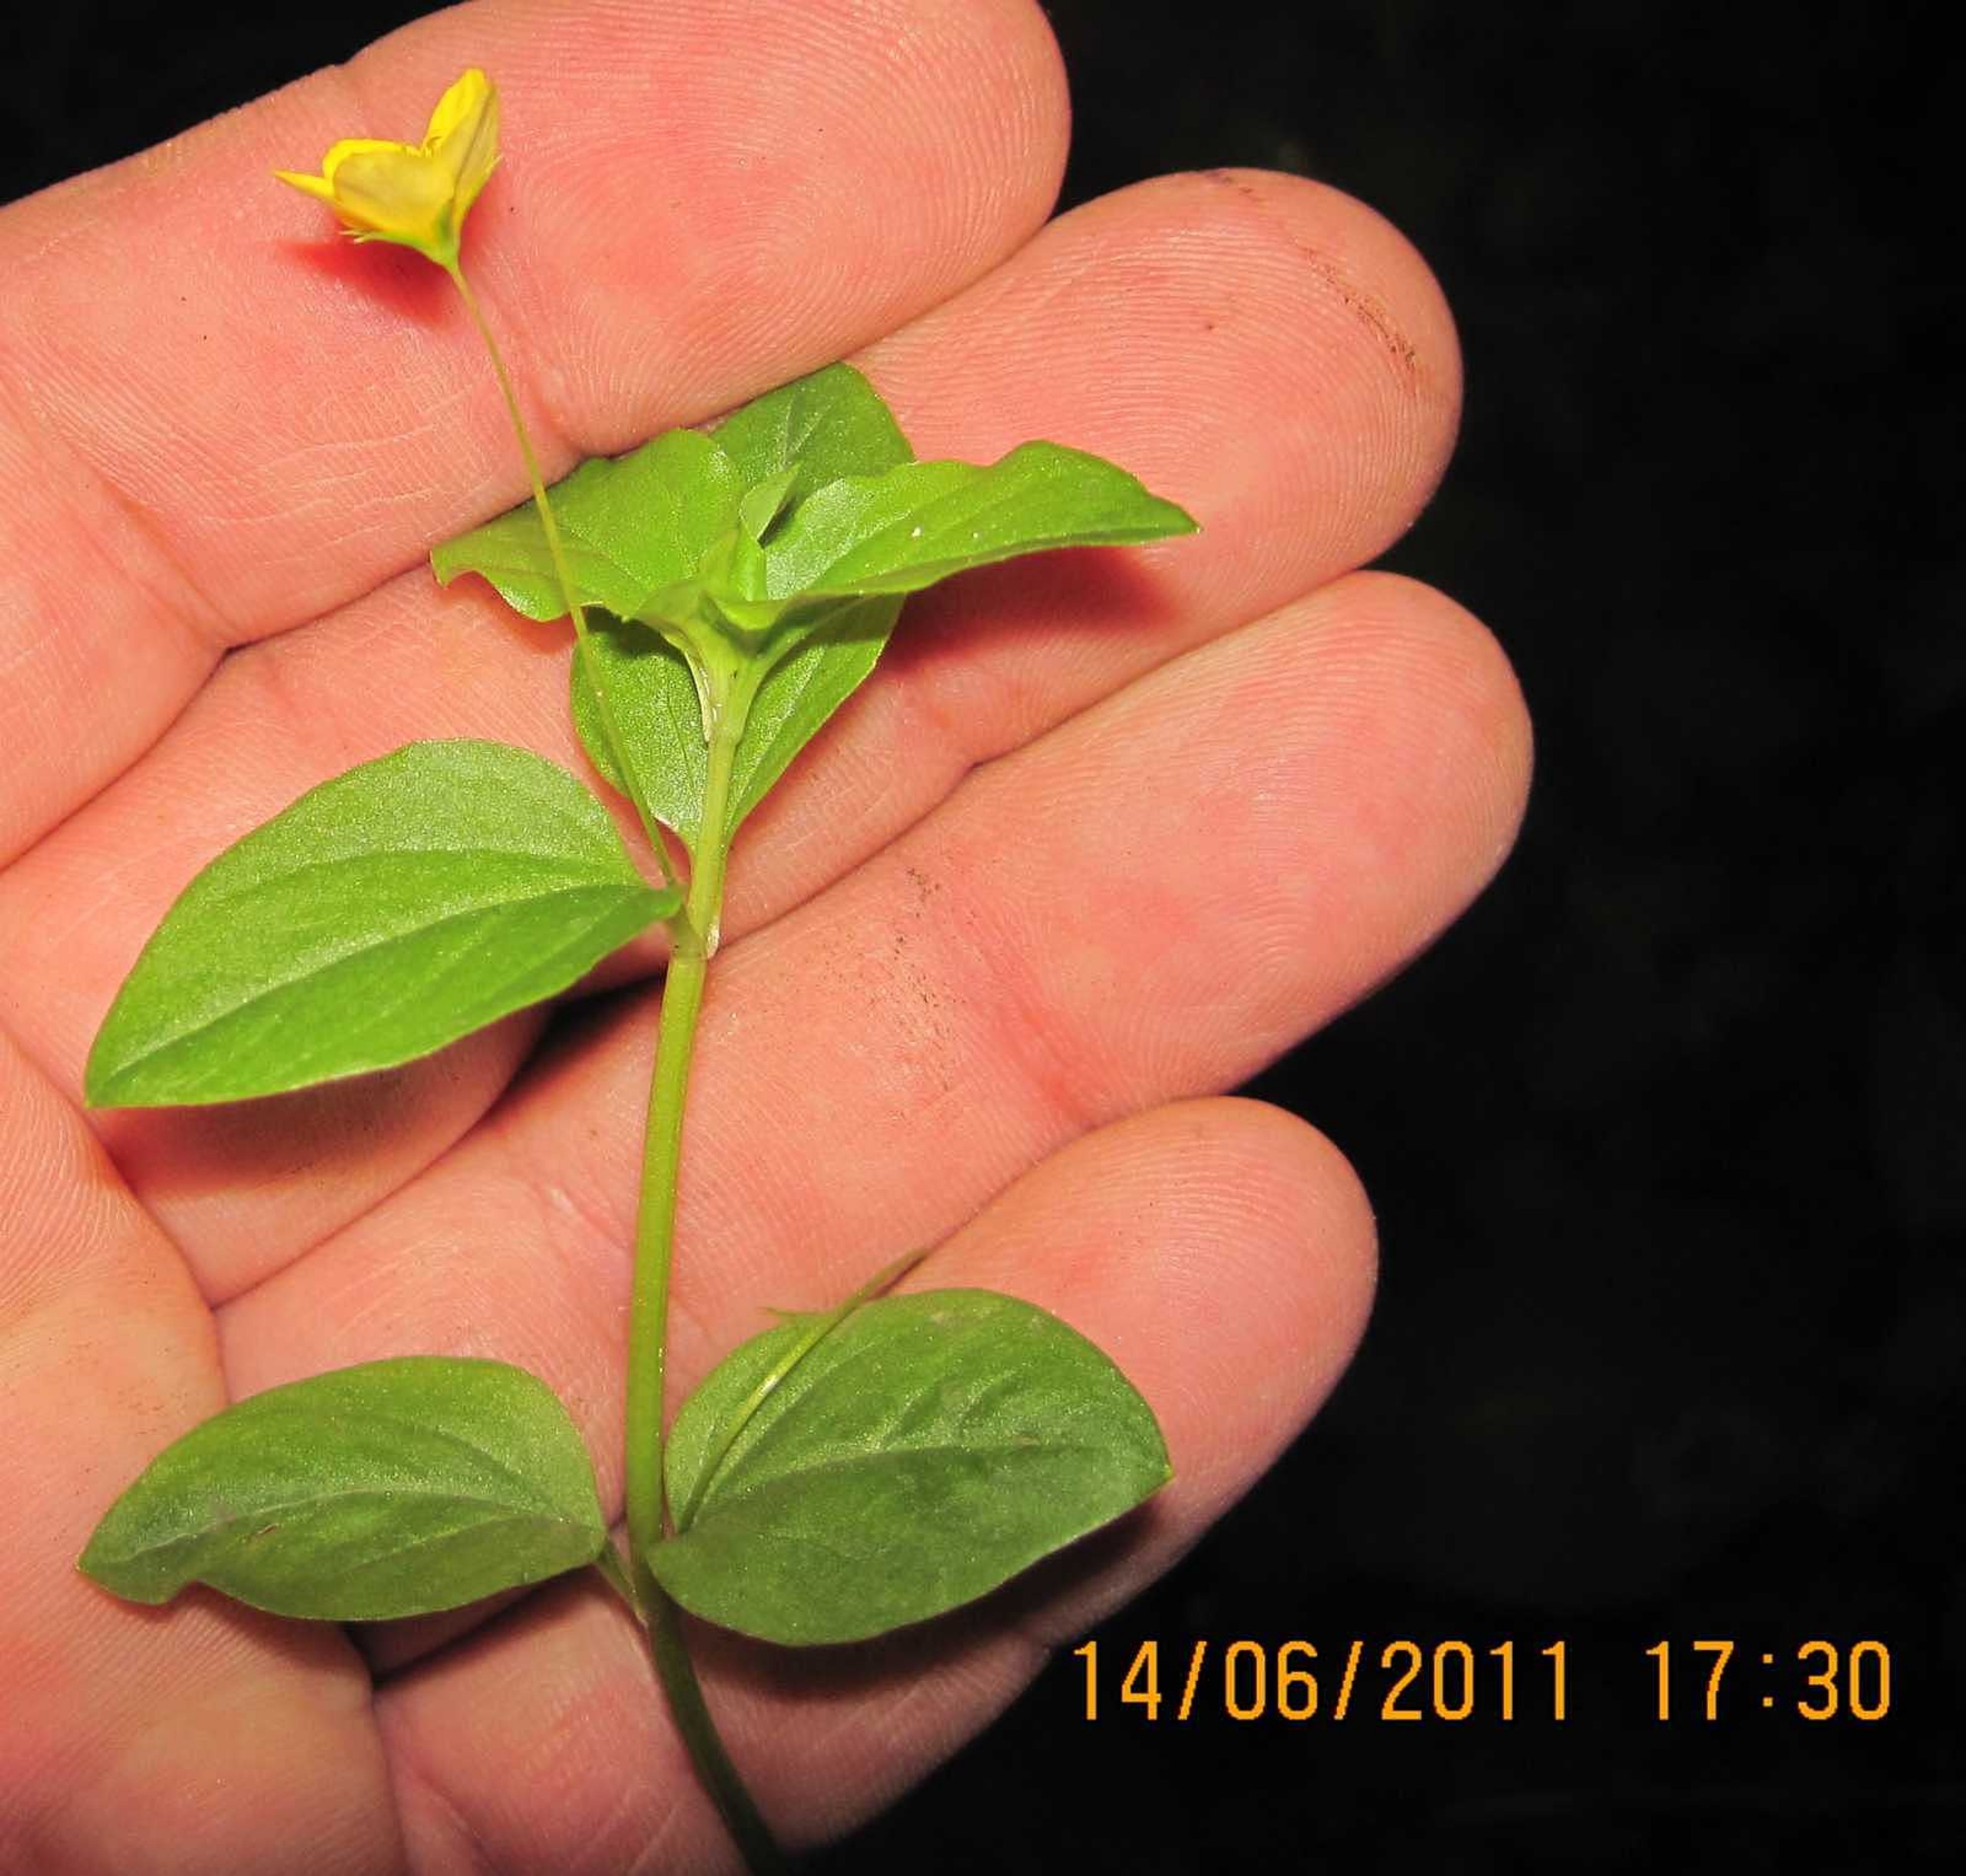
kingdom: Plantae
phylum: Tracheophyta
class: Magnoliopsida
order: Ericales
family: Primulaceae
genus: Lysimachia
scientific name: Lysimachia nemorum
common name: Lund-fredløs
